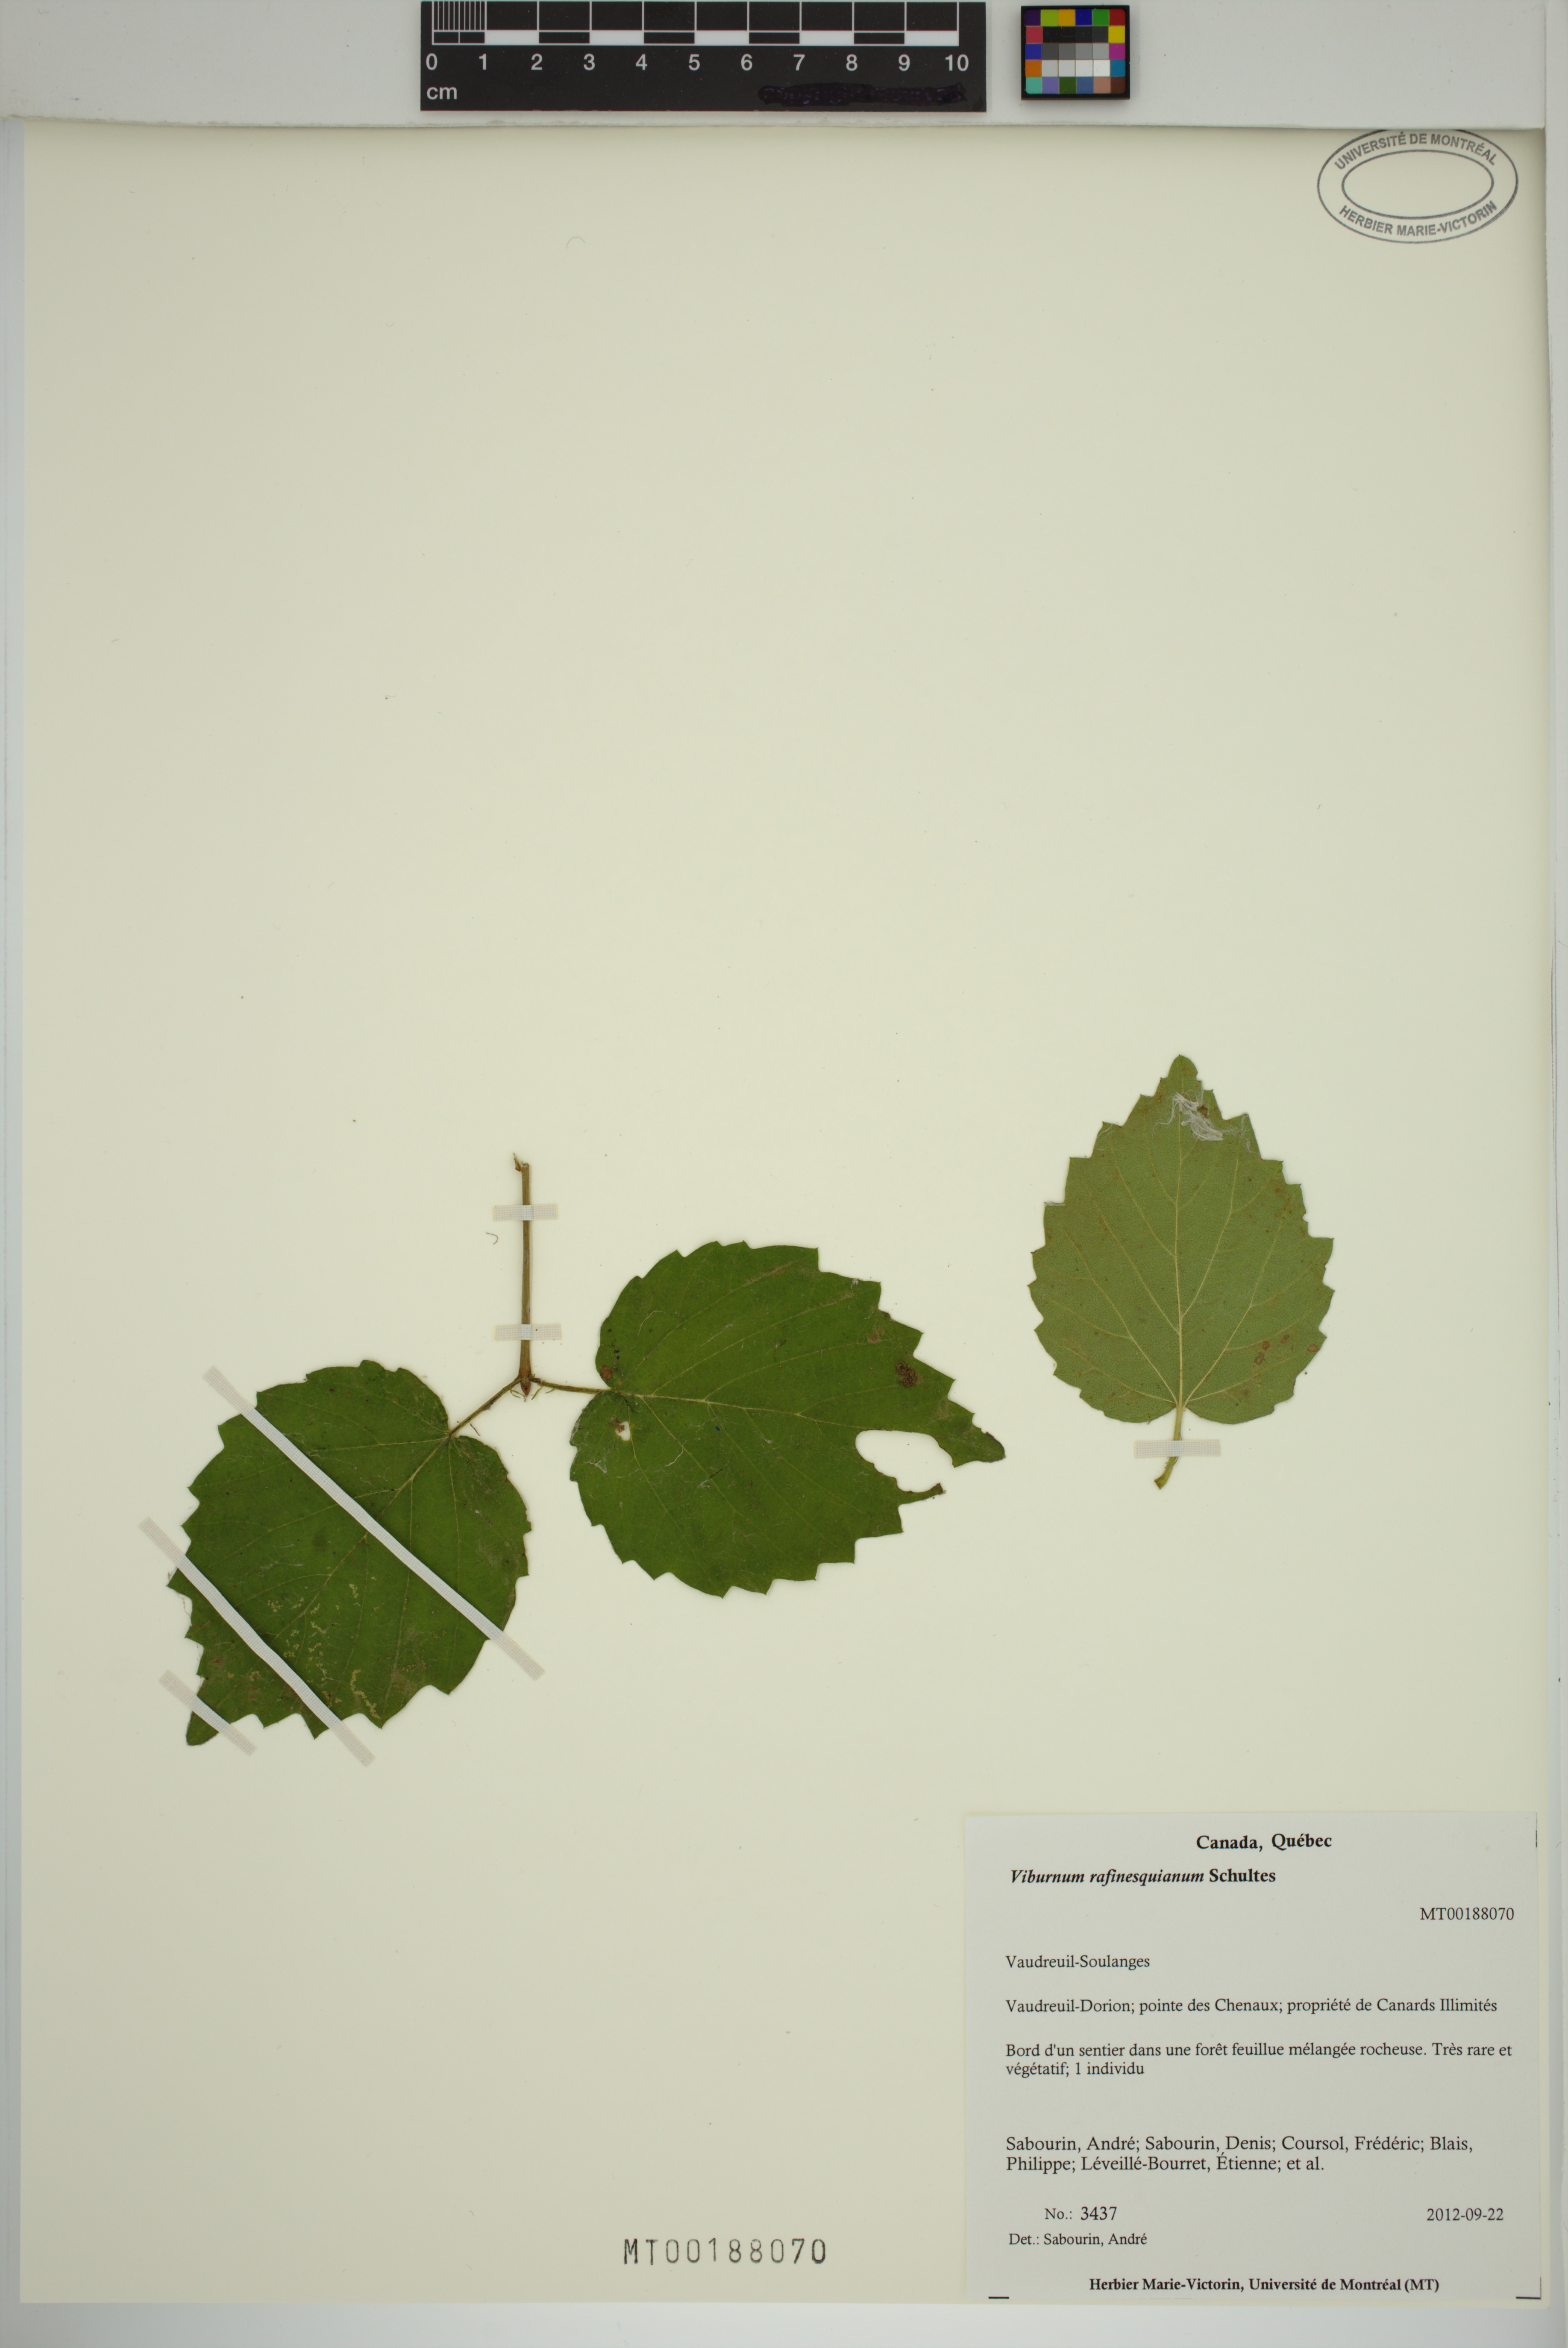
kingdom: Plantae
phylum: Tracheophyta
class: Magnoliopsida
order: Dipsacales
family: Viburnaceae
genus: Viburnum
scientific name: Viburnum rafinesqueanum
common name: Downy arrow-wood
